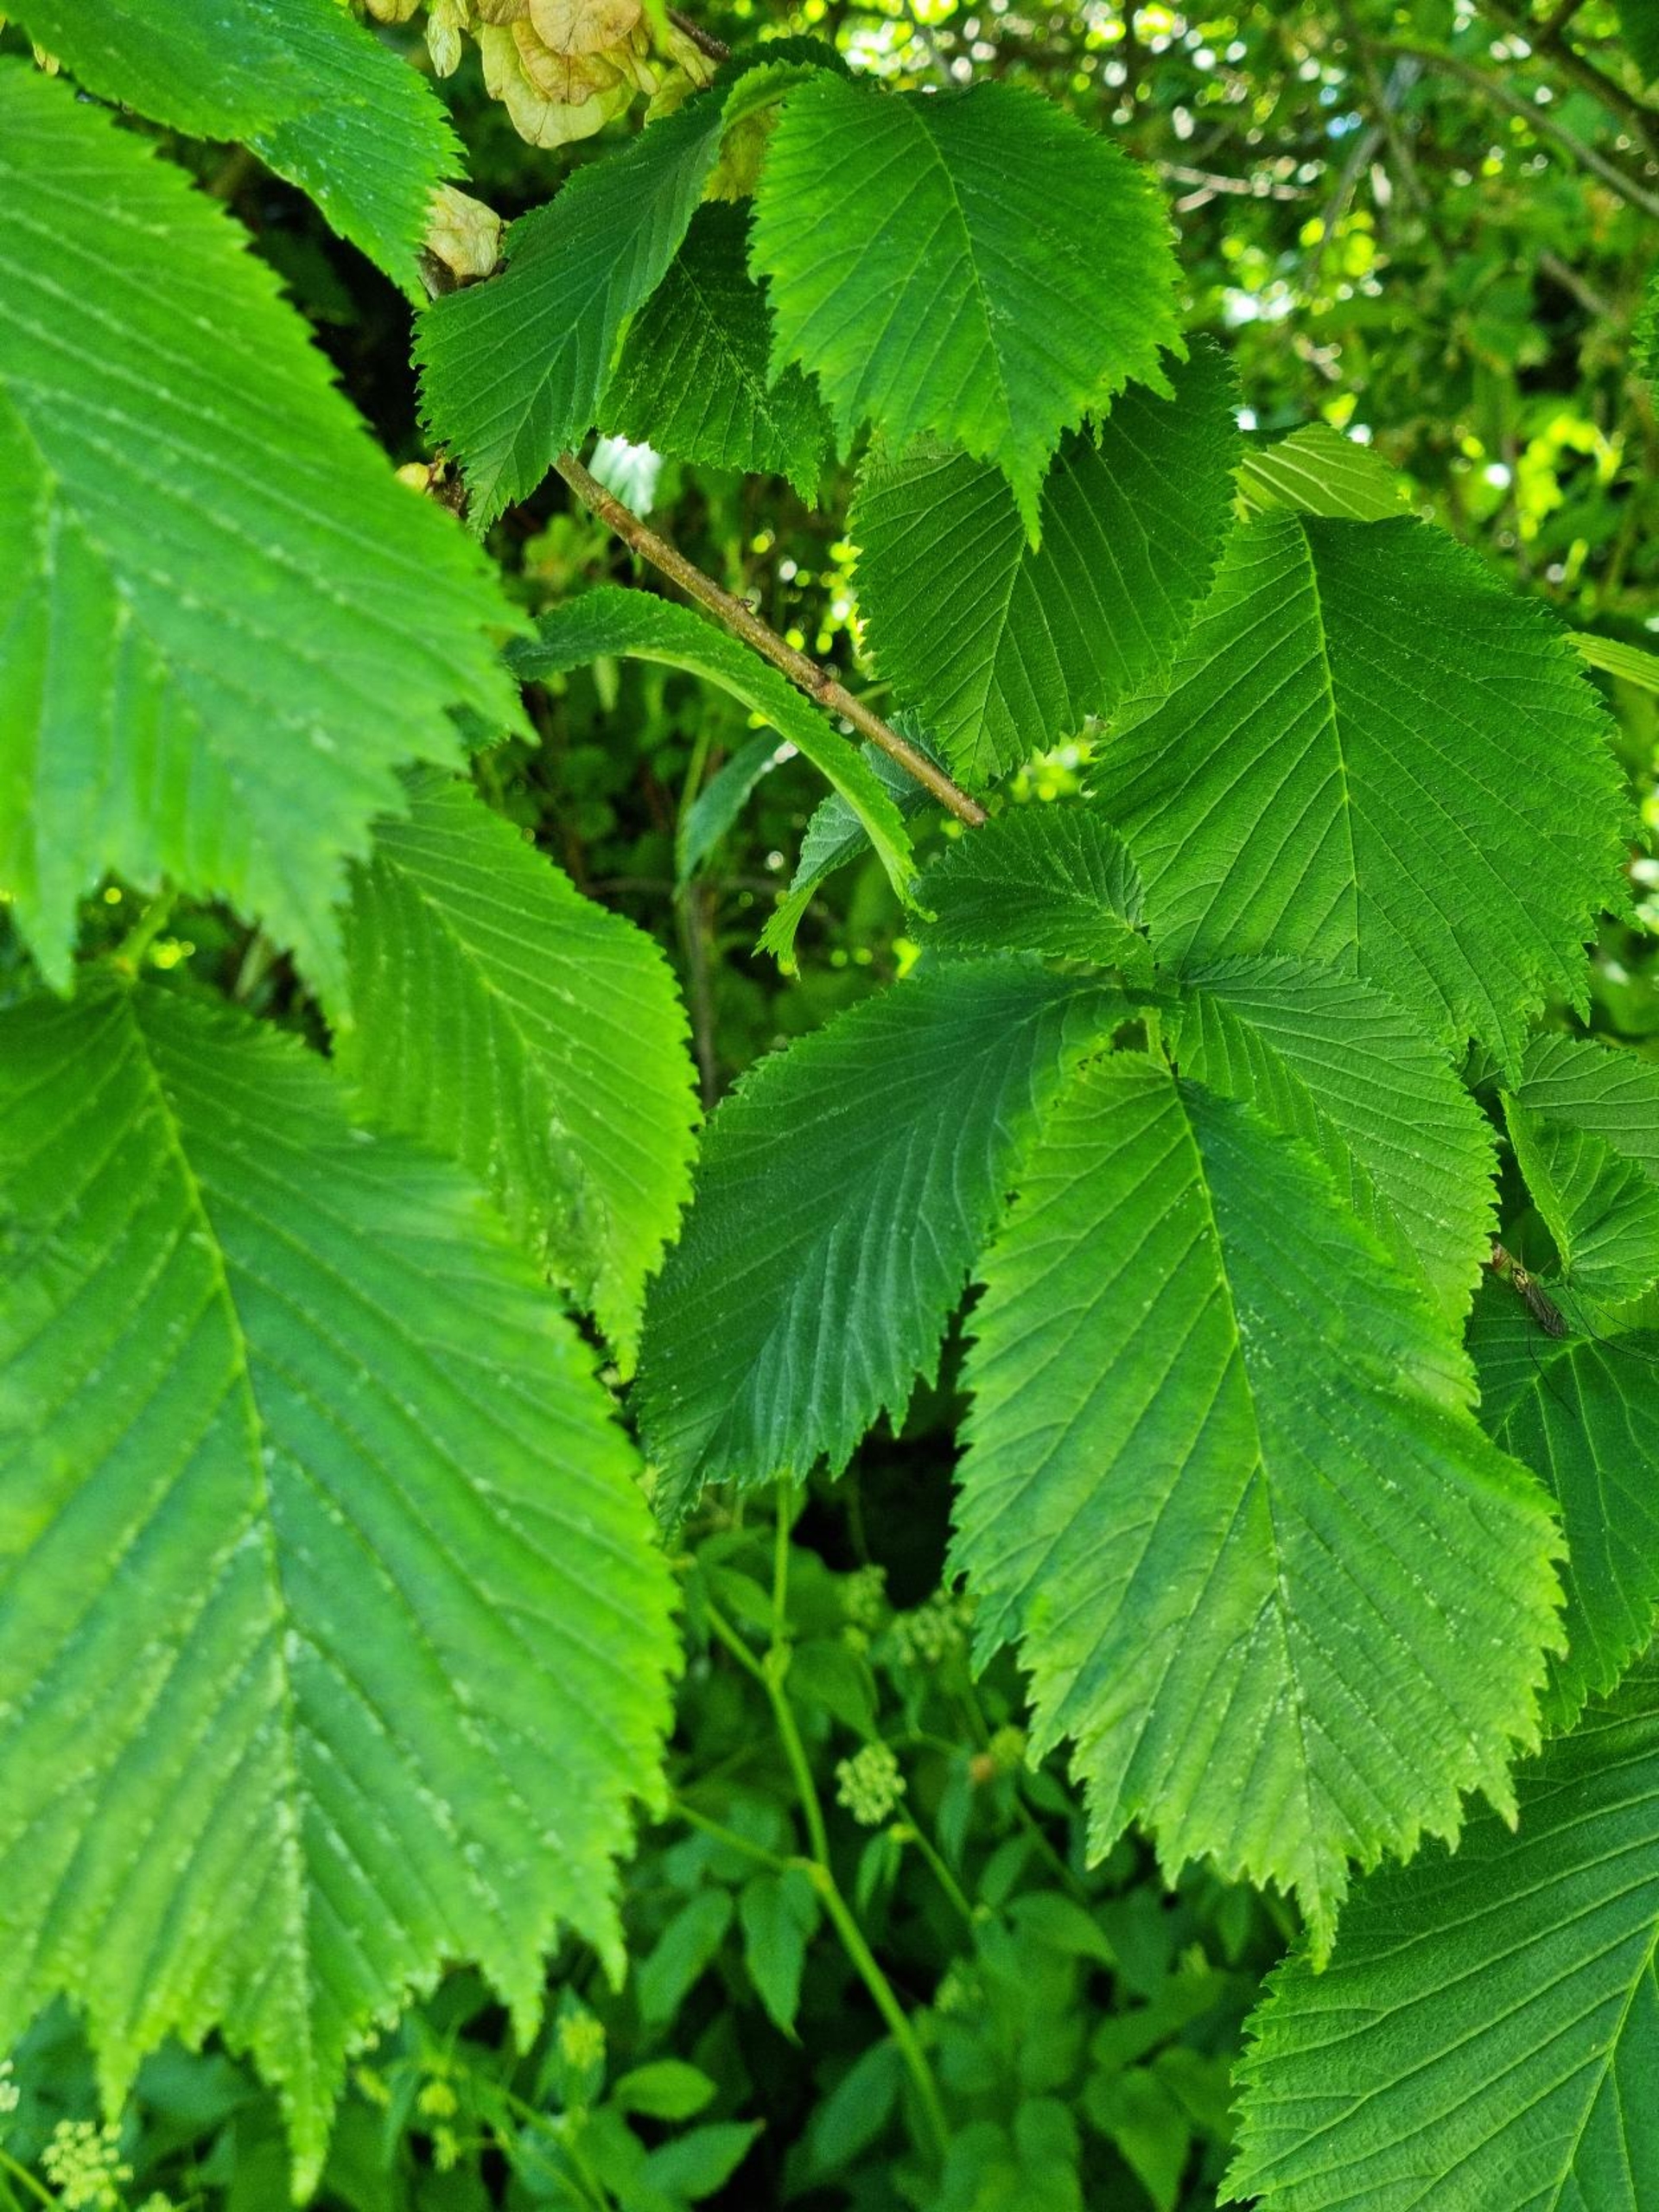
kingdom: Plantae
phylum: Tracheophyta
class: Magnoliopsida
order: Rosales
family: Ulmaceae
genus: Ulmus
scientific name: Ulmus glabra
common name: Skov-elm/storbladet elm
